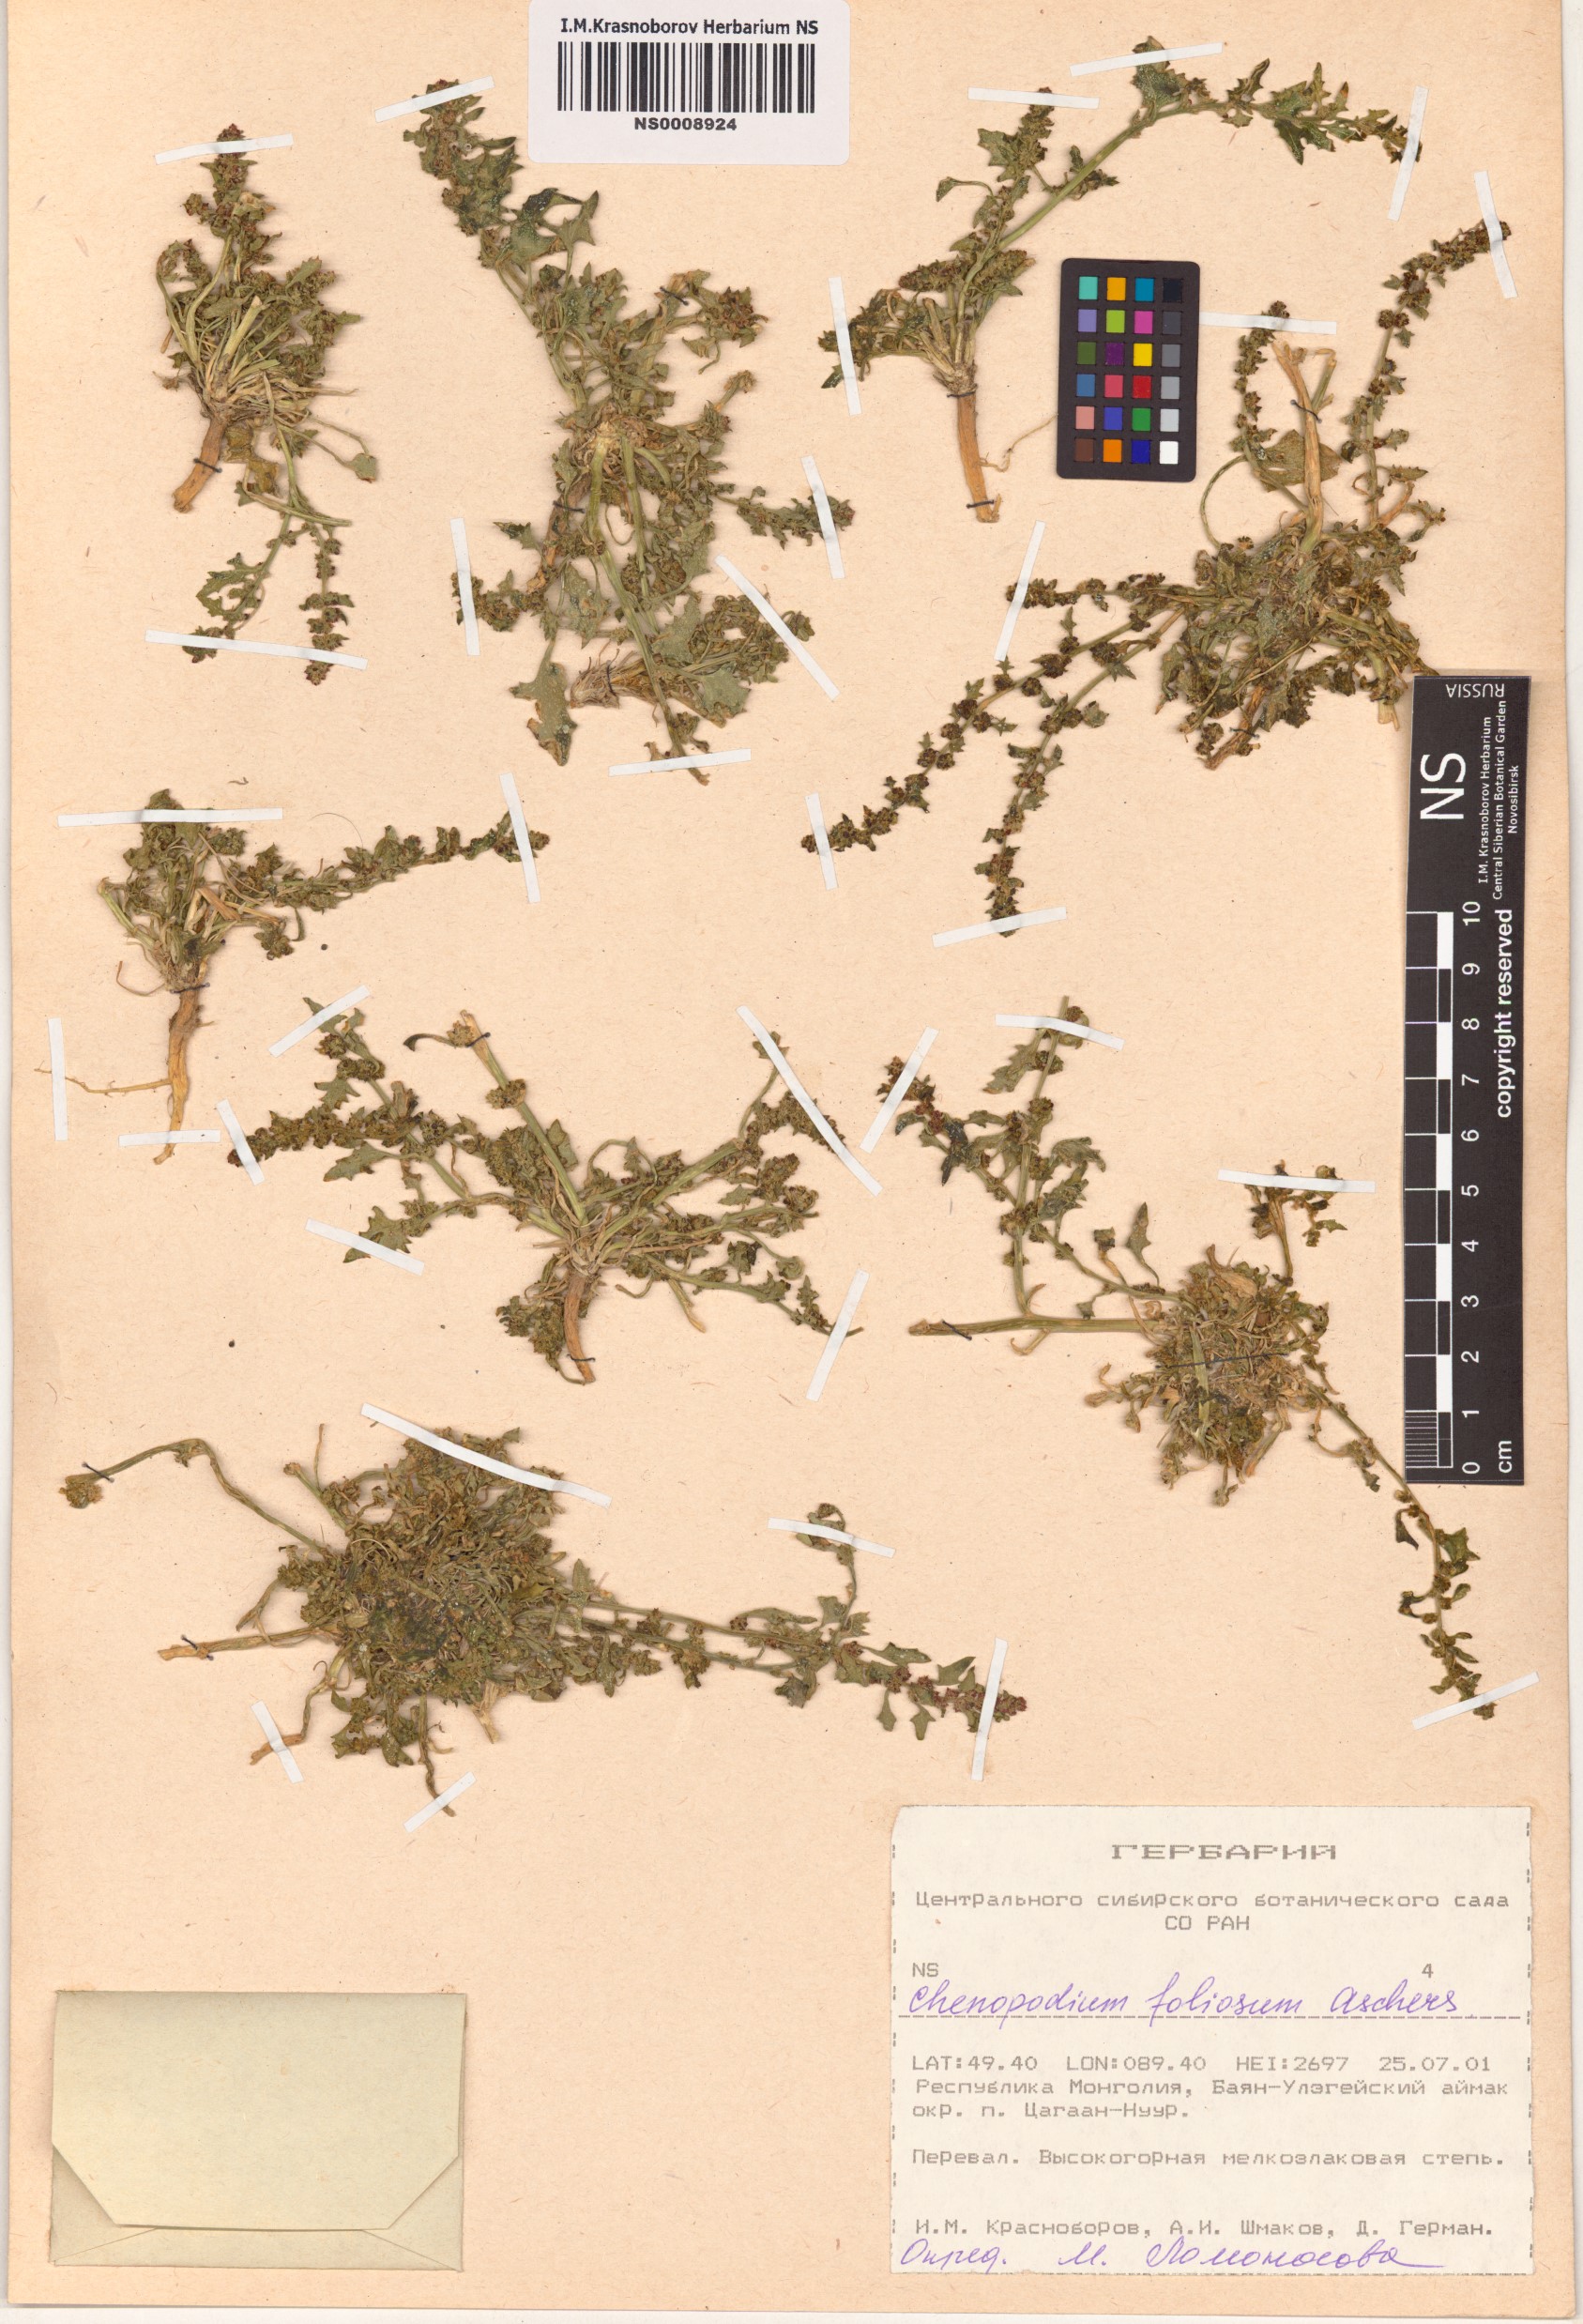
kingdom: Plantae
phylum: Tracheophyta
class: Magnoliopsida
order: Caryophyllales
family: Amaranthaceae
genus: Blitum
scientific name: Blitum virgatum
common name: Strawberry goosefoot
